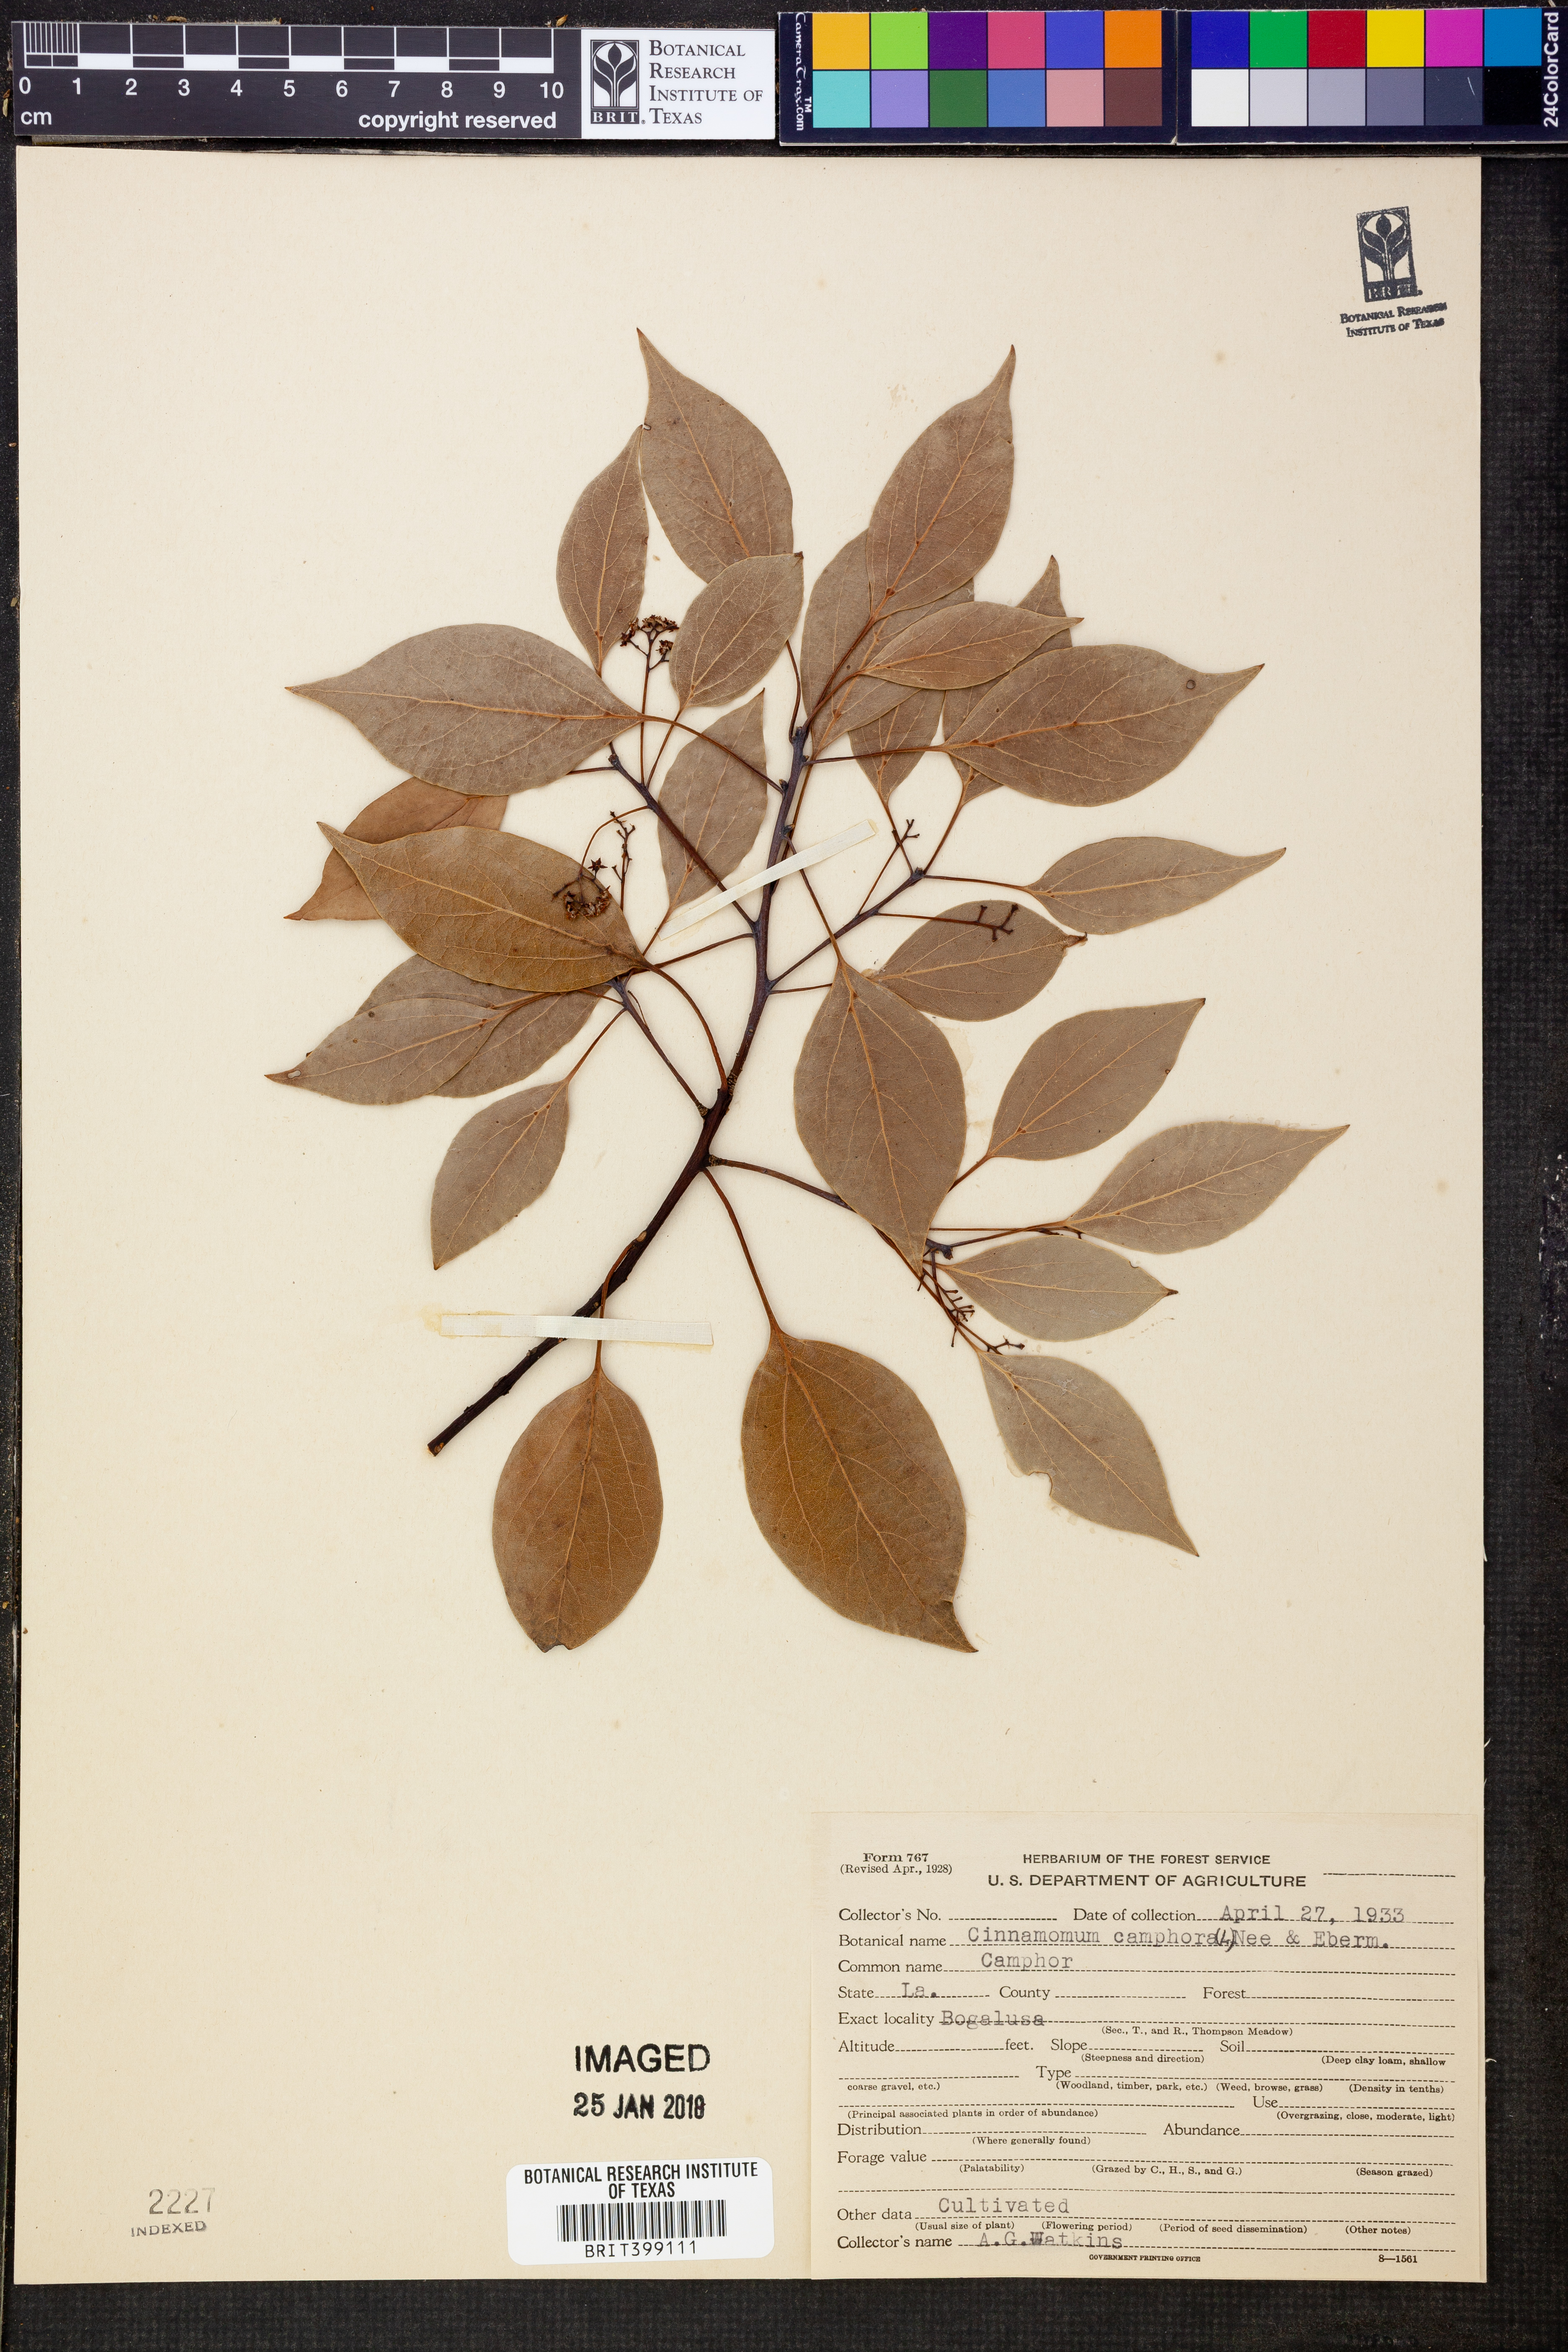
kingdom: Plantae
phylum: Tracheophyta
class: Magnoliopsida
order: Laurales
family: Lauraceae
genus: Cinnamomum
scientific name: Cinnamomum camphora
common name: Camphortree
